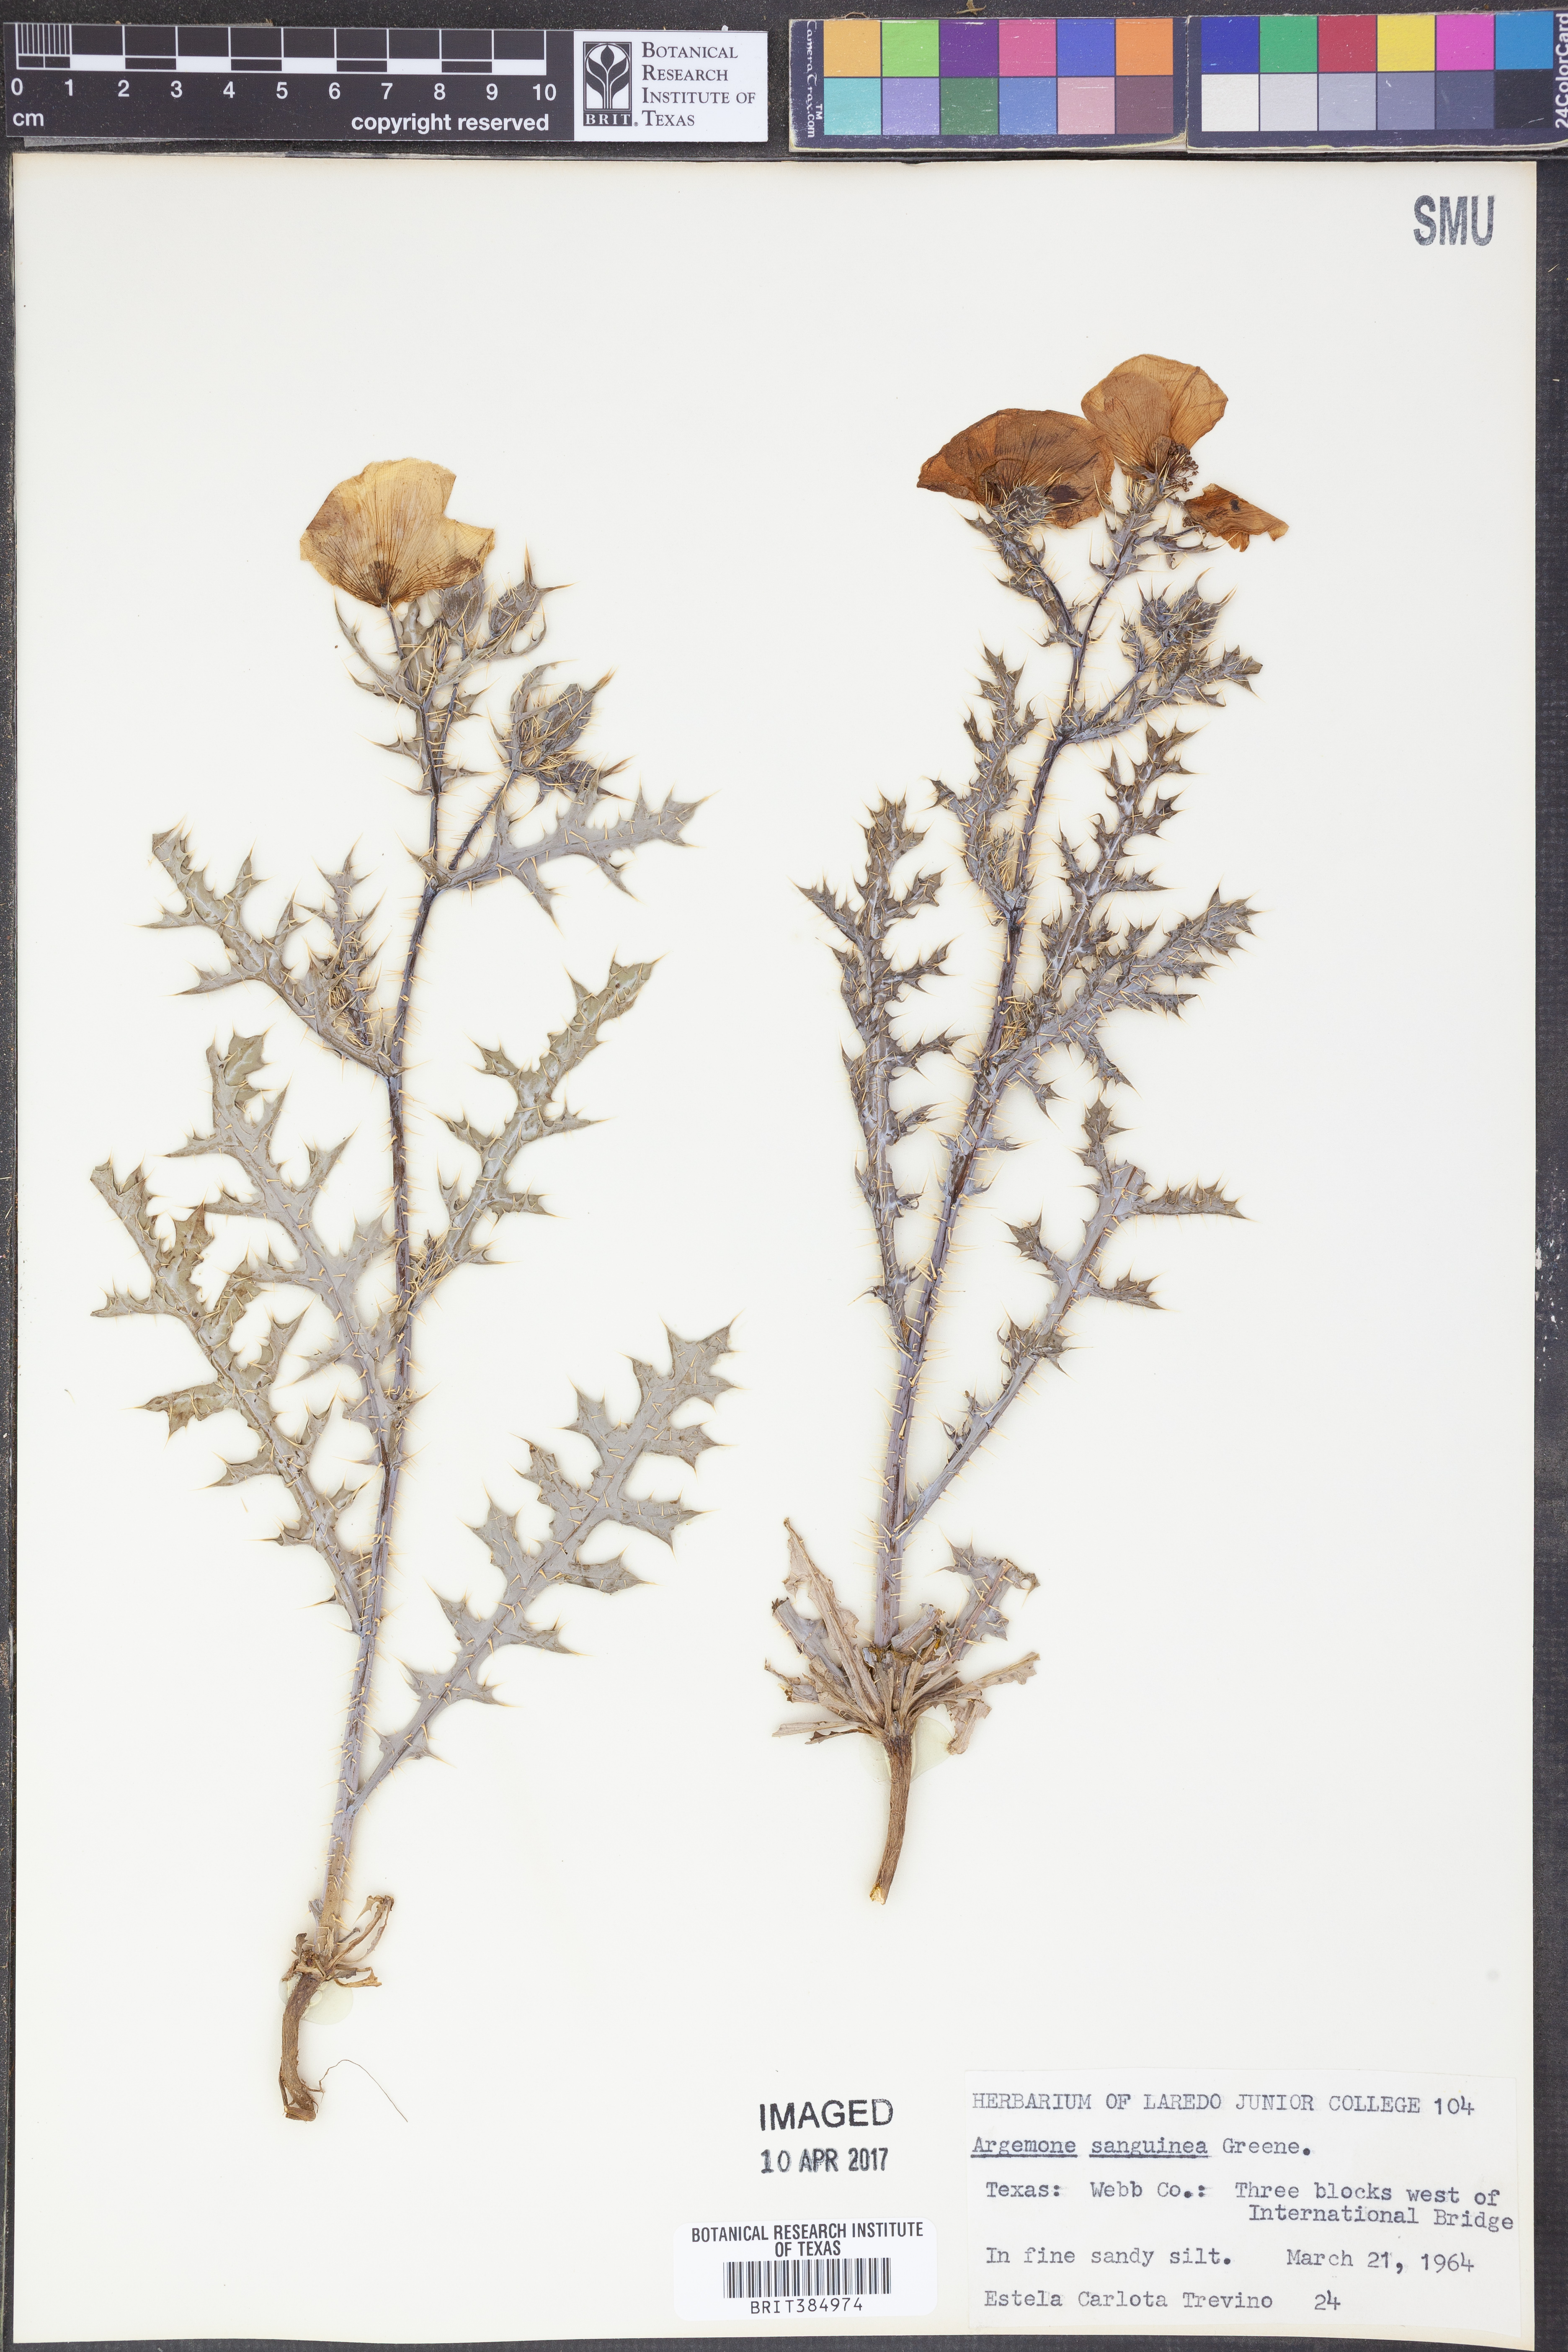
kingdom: Plantae
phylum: Tracheophyta
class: Magnoliopsida
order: Ranunculales
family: Papaveraceae
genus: Argemone
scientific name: Argemone sanguinea
